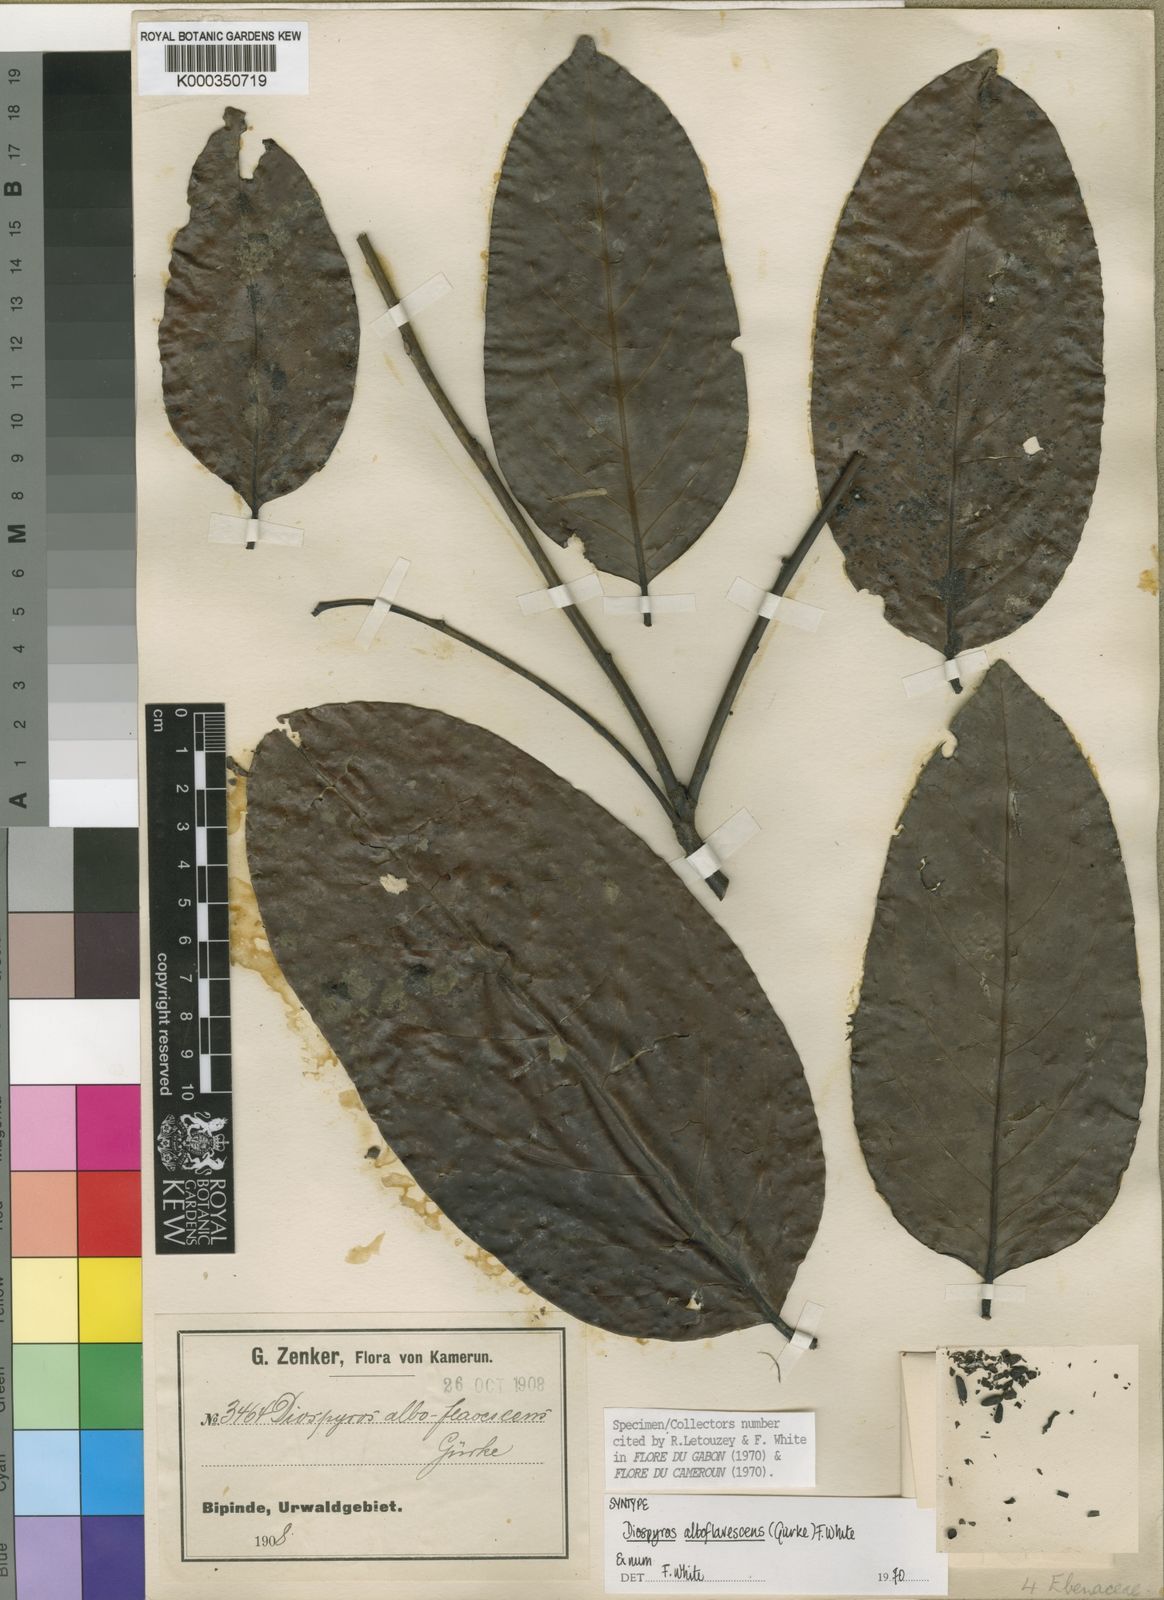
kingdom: Plantae
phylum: Tracheophyta
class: Magnoliopsida
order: Ericales
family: Ebenaceae
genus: Diospyros
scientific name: Diospyros
